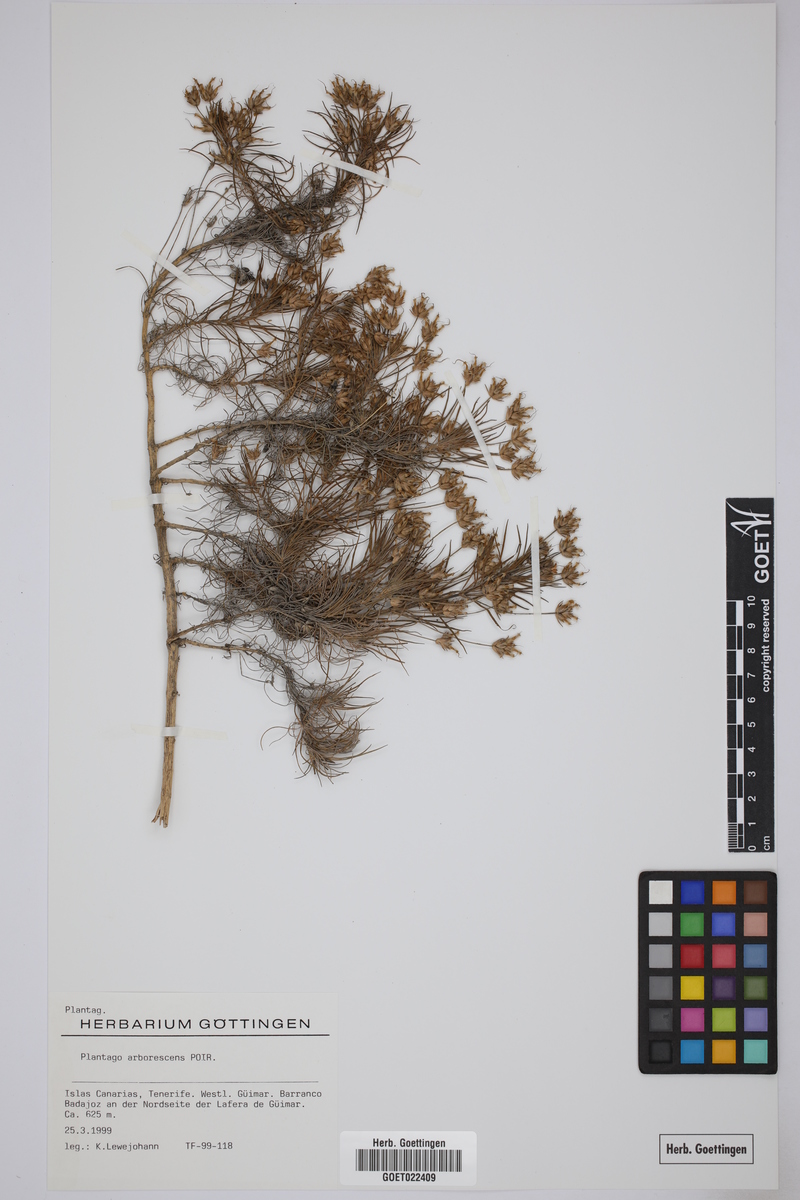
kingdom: Plantae
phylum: Tracheophyta
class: Magnoliopsida
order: Lamiales
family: Plantaginaceae
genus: Plantago
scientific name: Plantago arborescens
